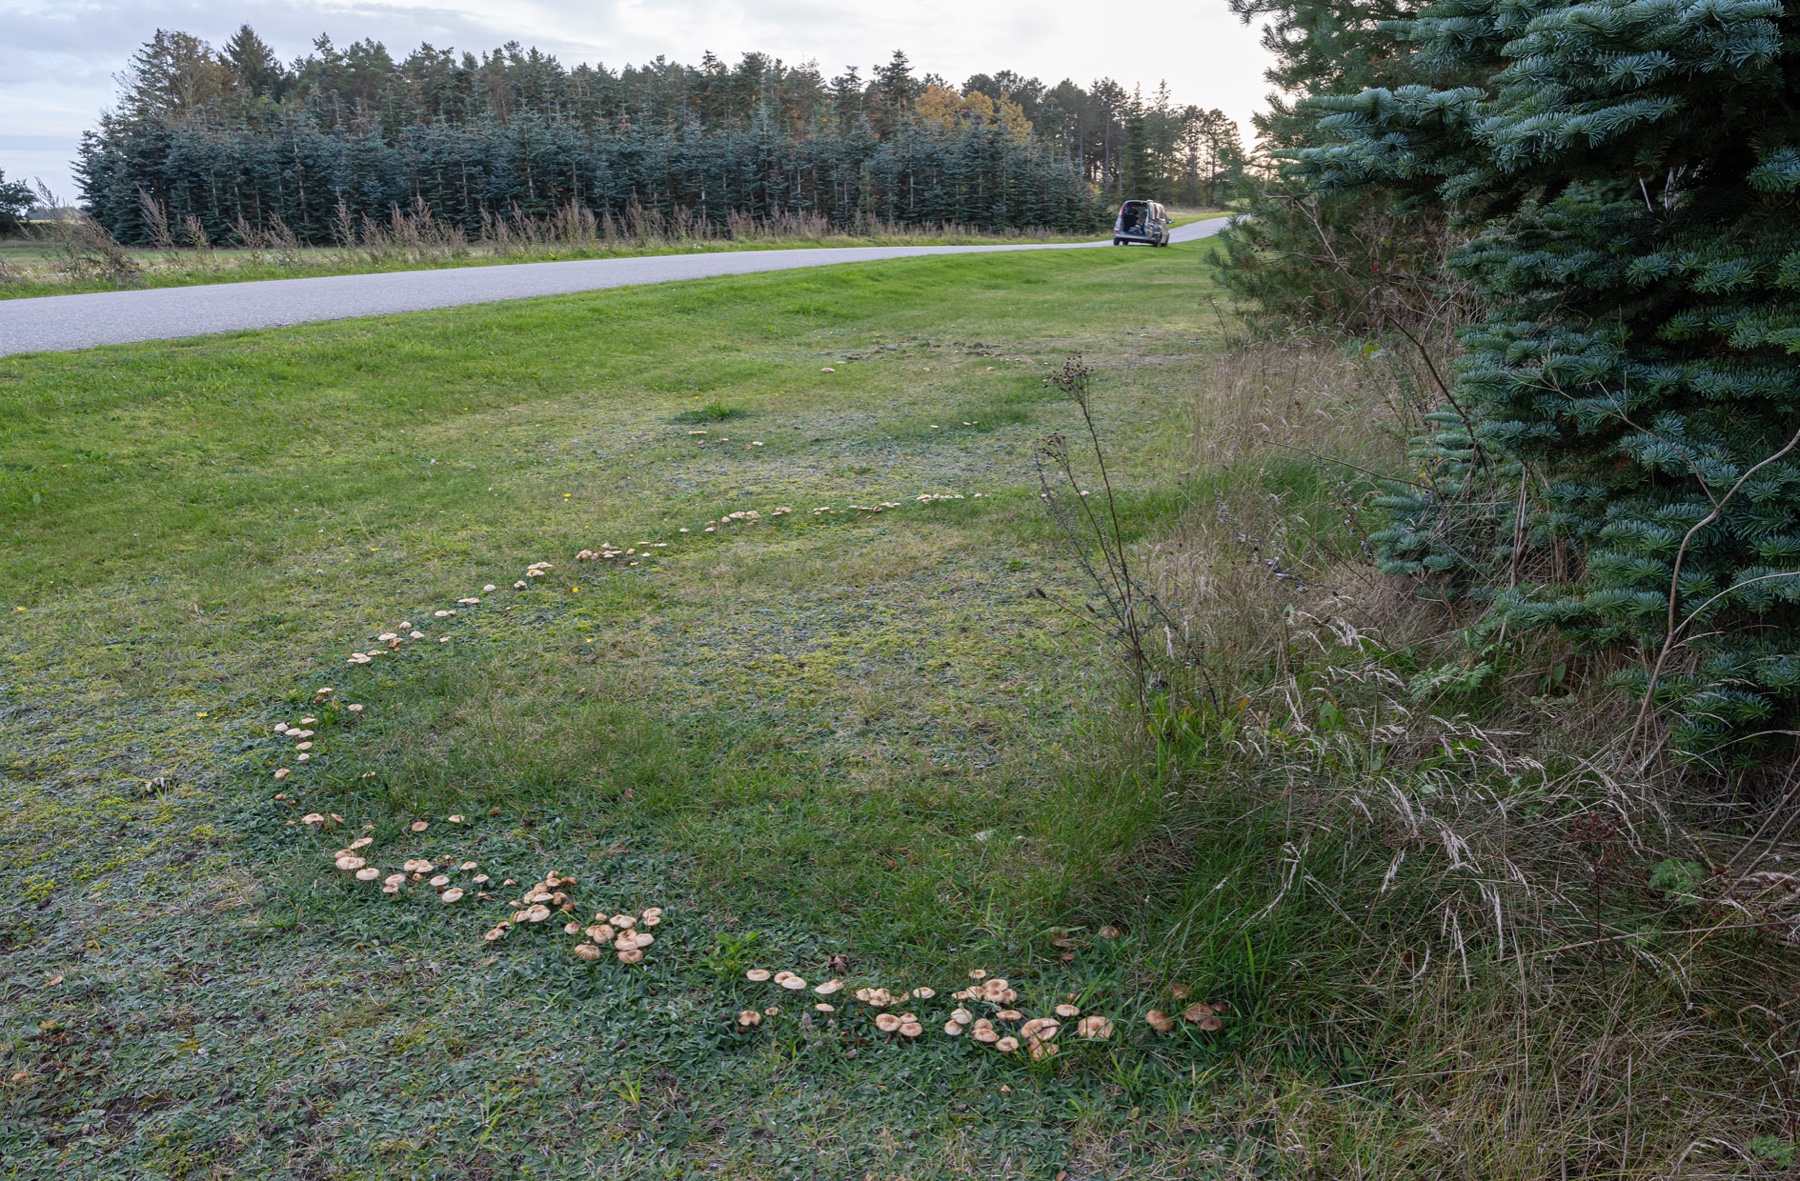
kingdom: Fungi
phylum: Basidiomycota
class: Agaricomycetes
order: Agaricales
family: Marasmiaceae
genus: Marasmius
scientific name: Marasmius oreades
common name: elledans-bruskhat
